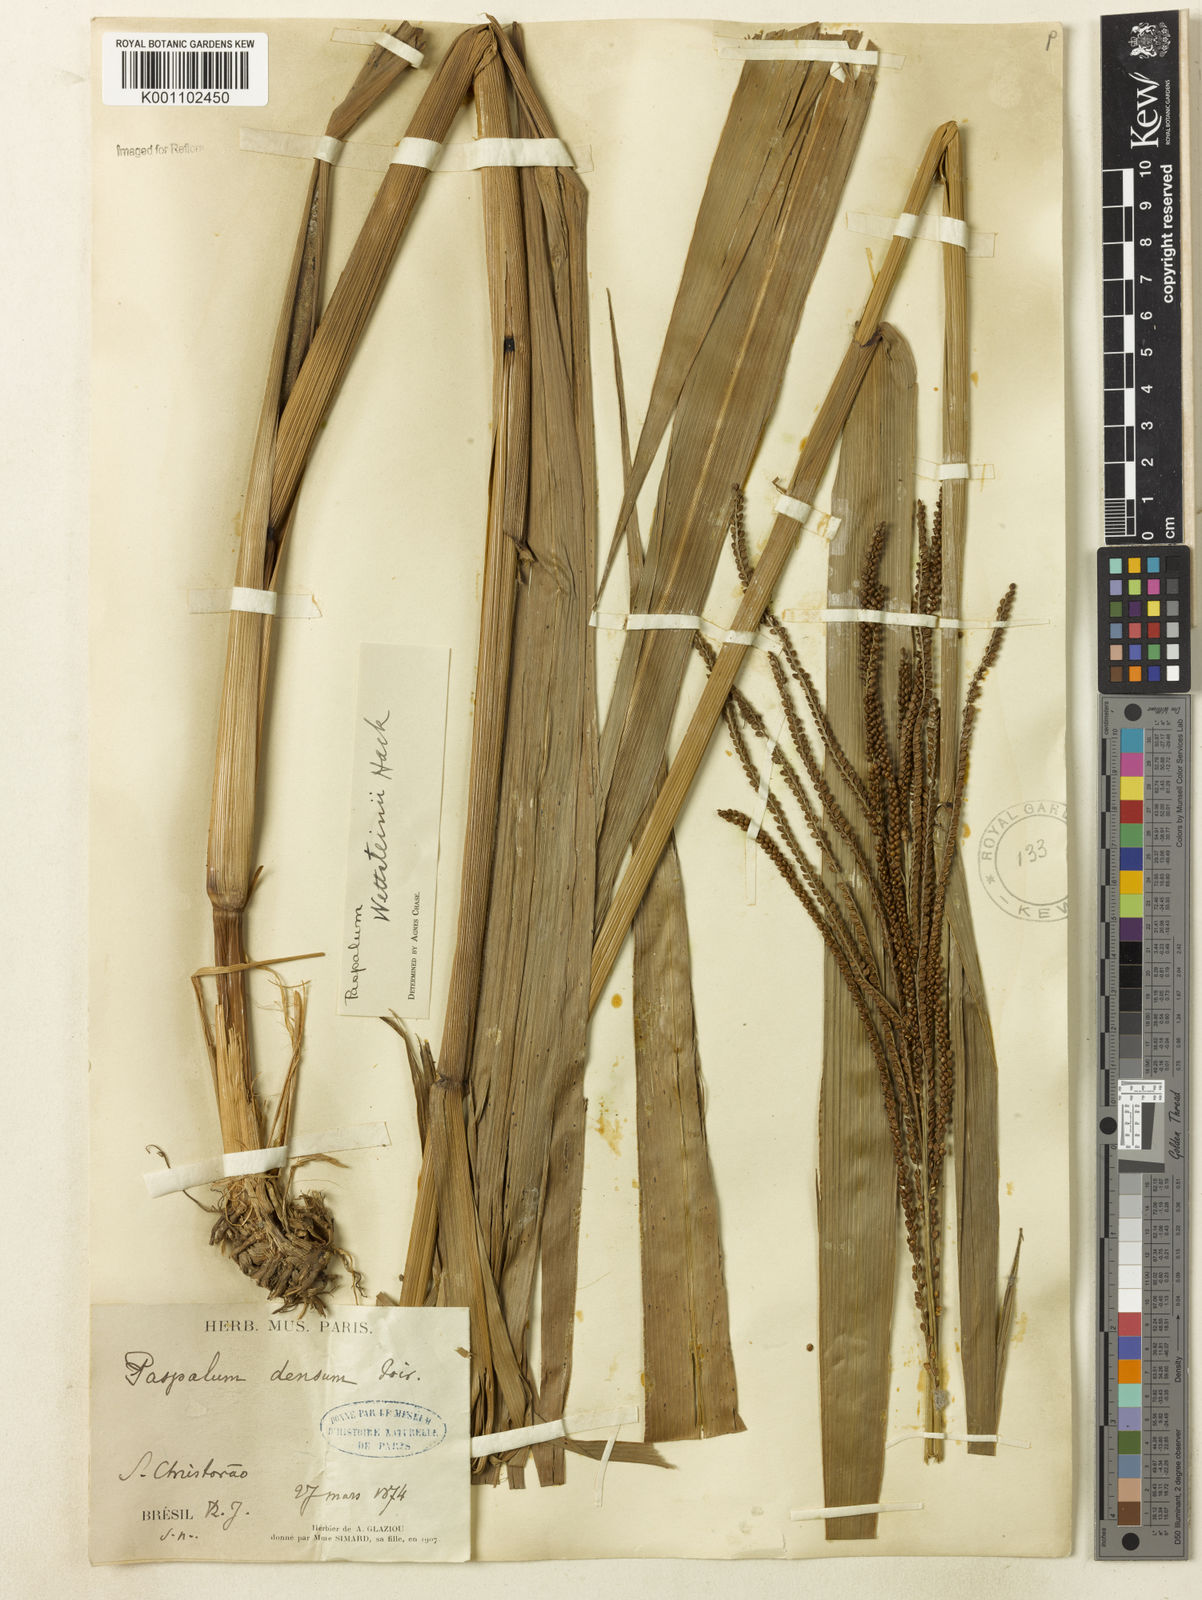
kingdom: Plantae
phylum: Tracheophyta
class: Liliopsida
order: Poales
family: Poaceae
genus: Paspalum
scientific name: Paspalum virgatum
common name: Talquezal
